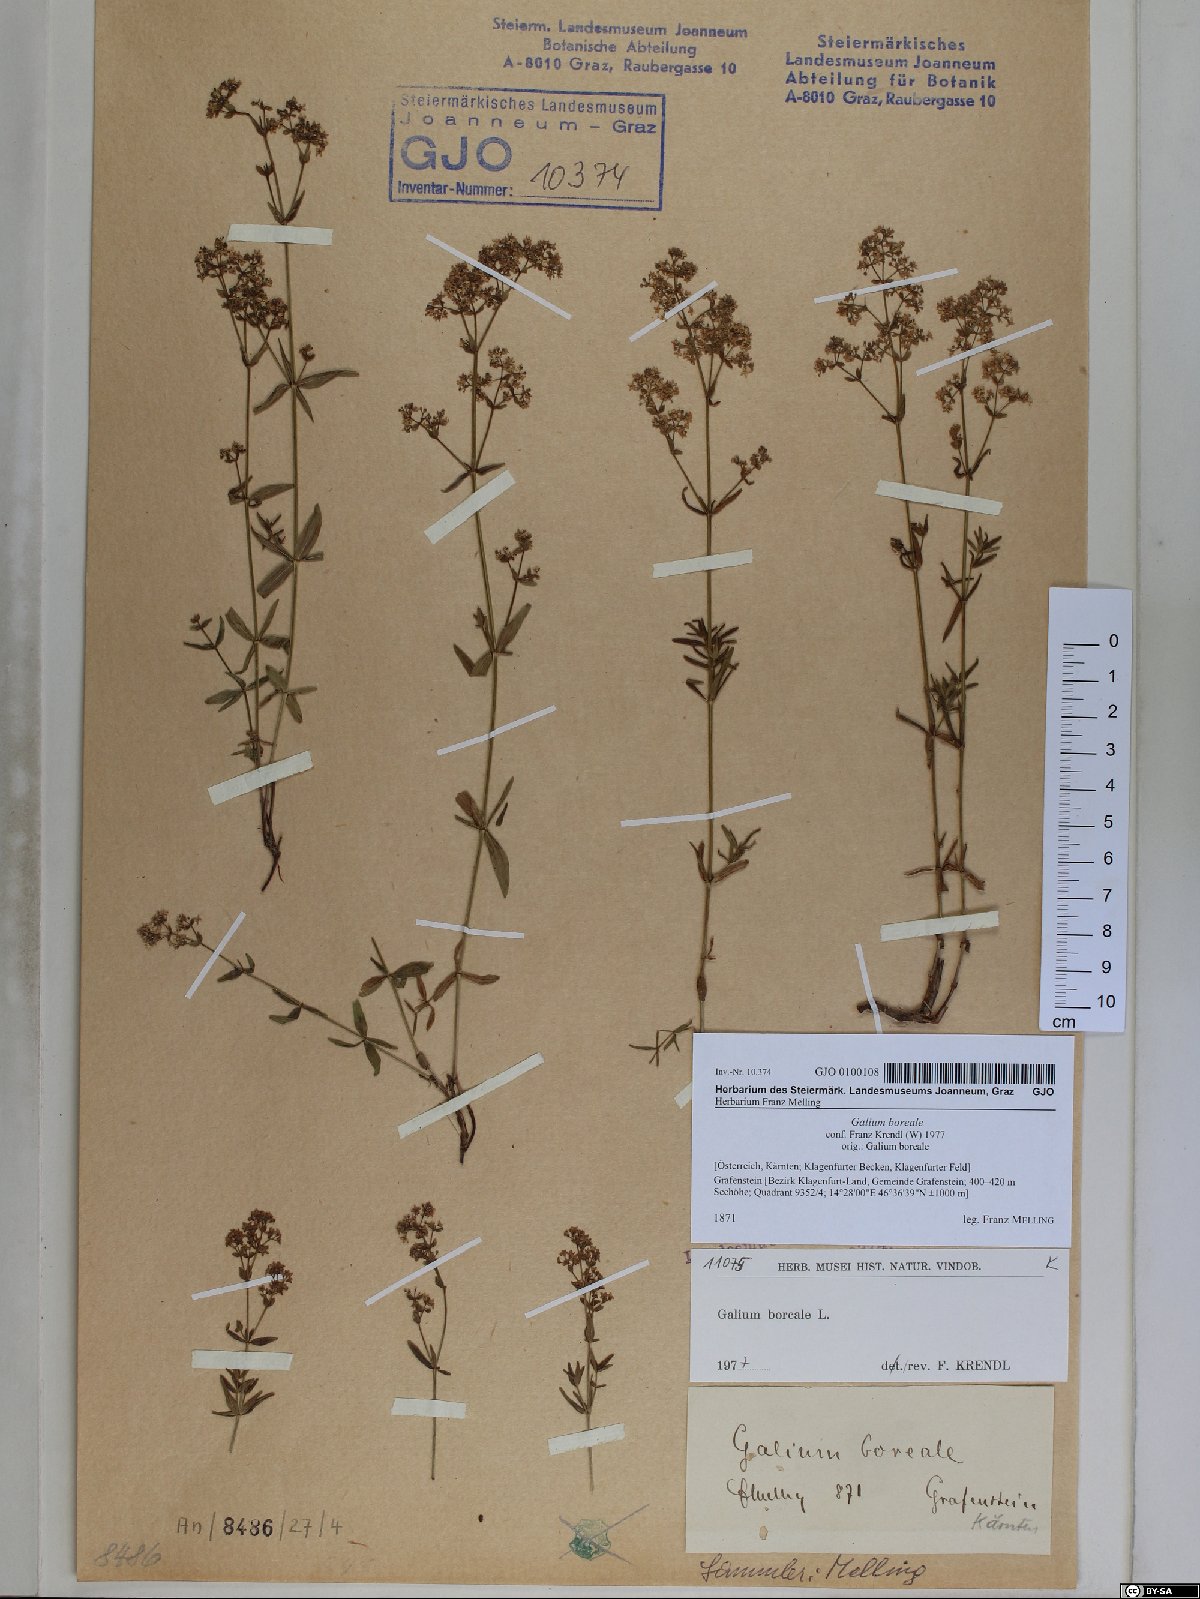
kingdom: Plantae
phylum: Tracheophyta
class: Magnoliopsida
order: Gentianales
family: Rubiaceae
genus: Galium
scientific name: Galium boreale
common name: Northern bedstraw
